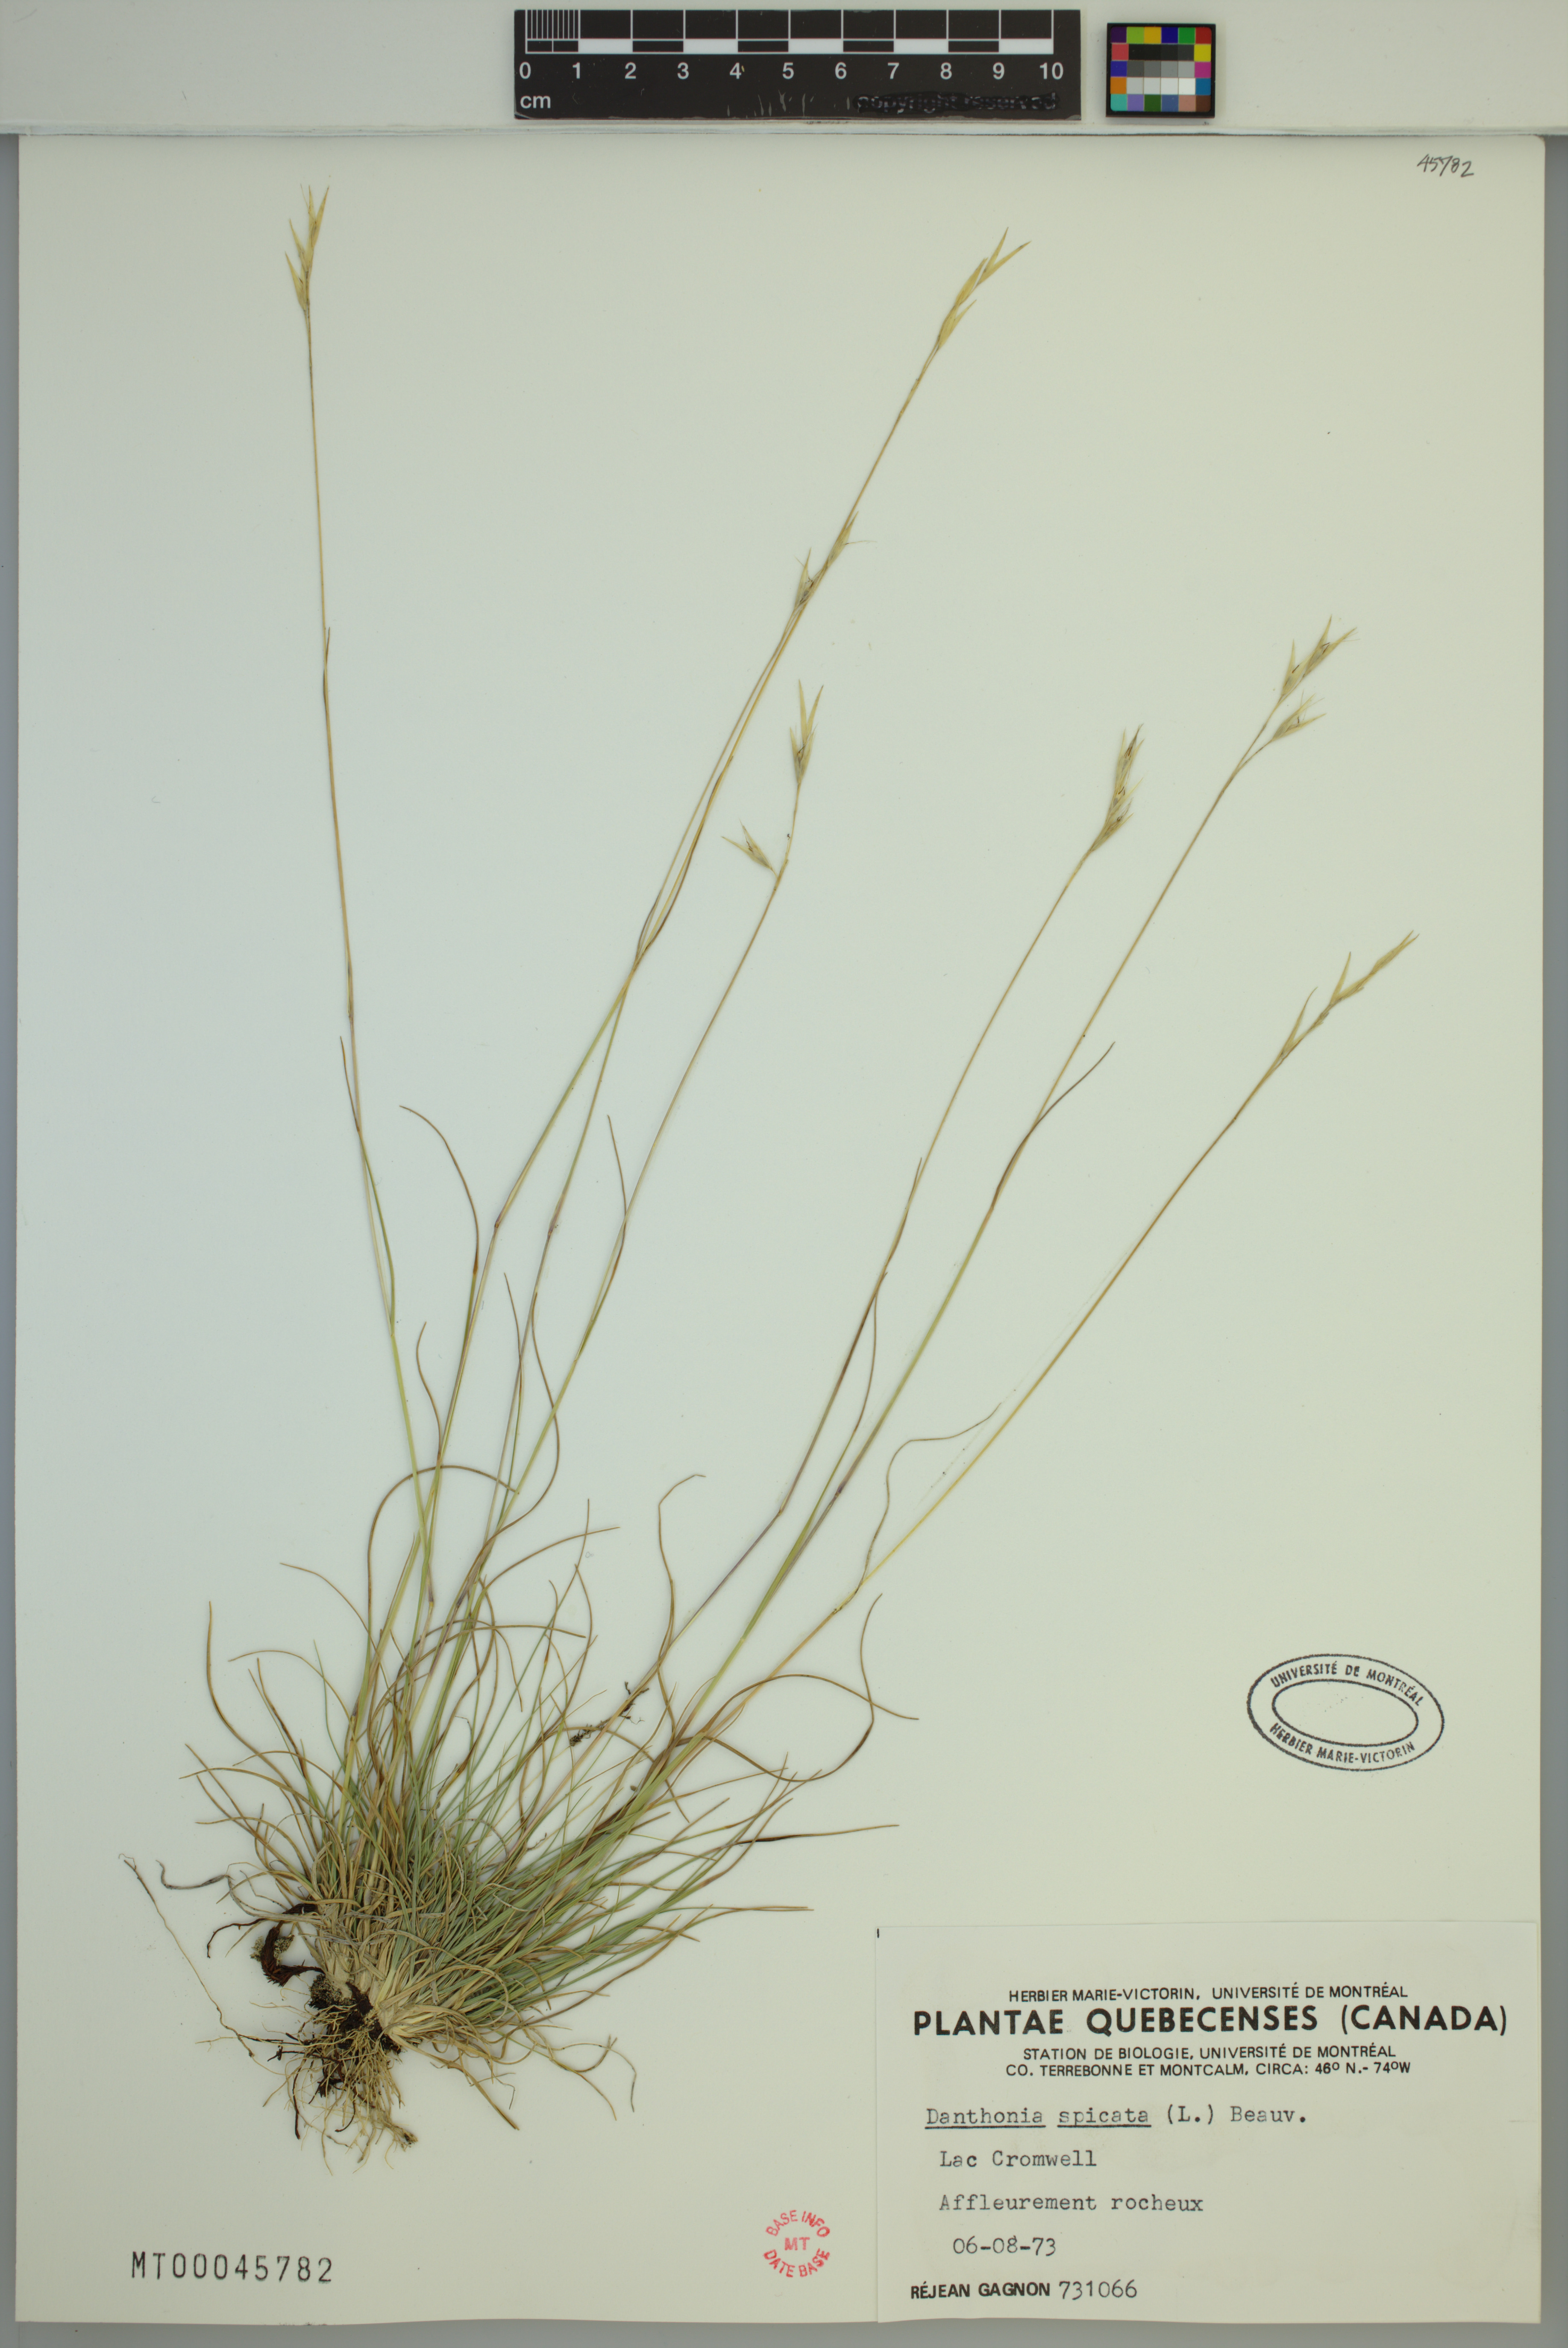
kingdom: Plantae
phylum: Tracheophyta
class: Liliopsida
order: Poales
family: Poaceae
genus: Danthonia
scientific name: Danthonia spicata
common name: Common wild oatgrass
